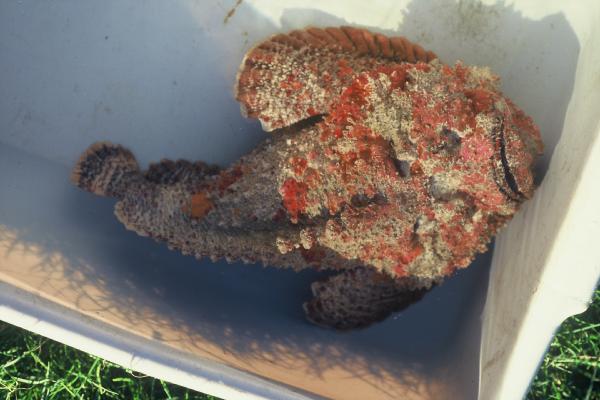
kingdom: Animalia
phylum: Chordata
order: Scorpaeniformes
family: Synanceiidae
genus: Synanceia
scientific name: Synanceia verrucosa
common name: Stonefish
